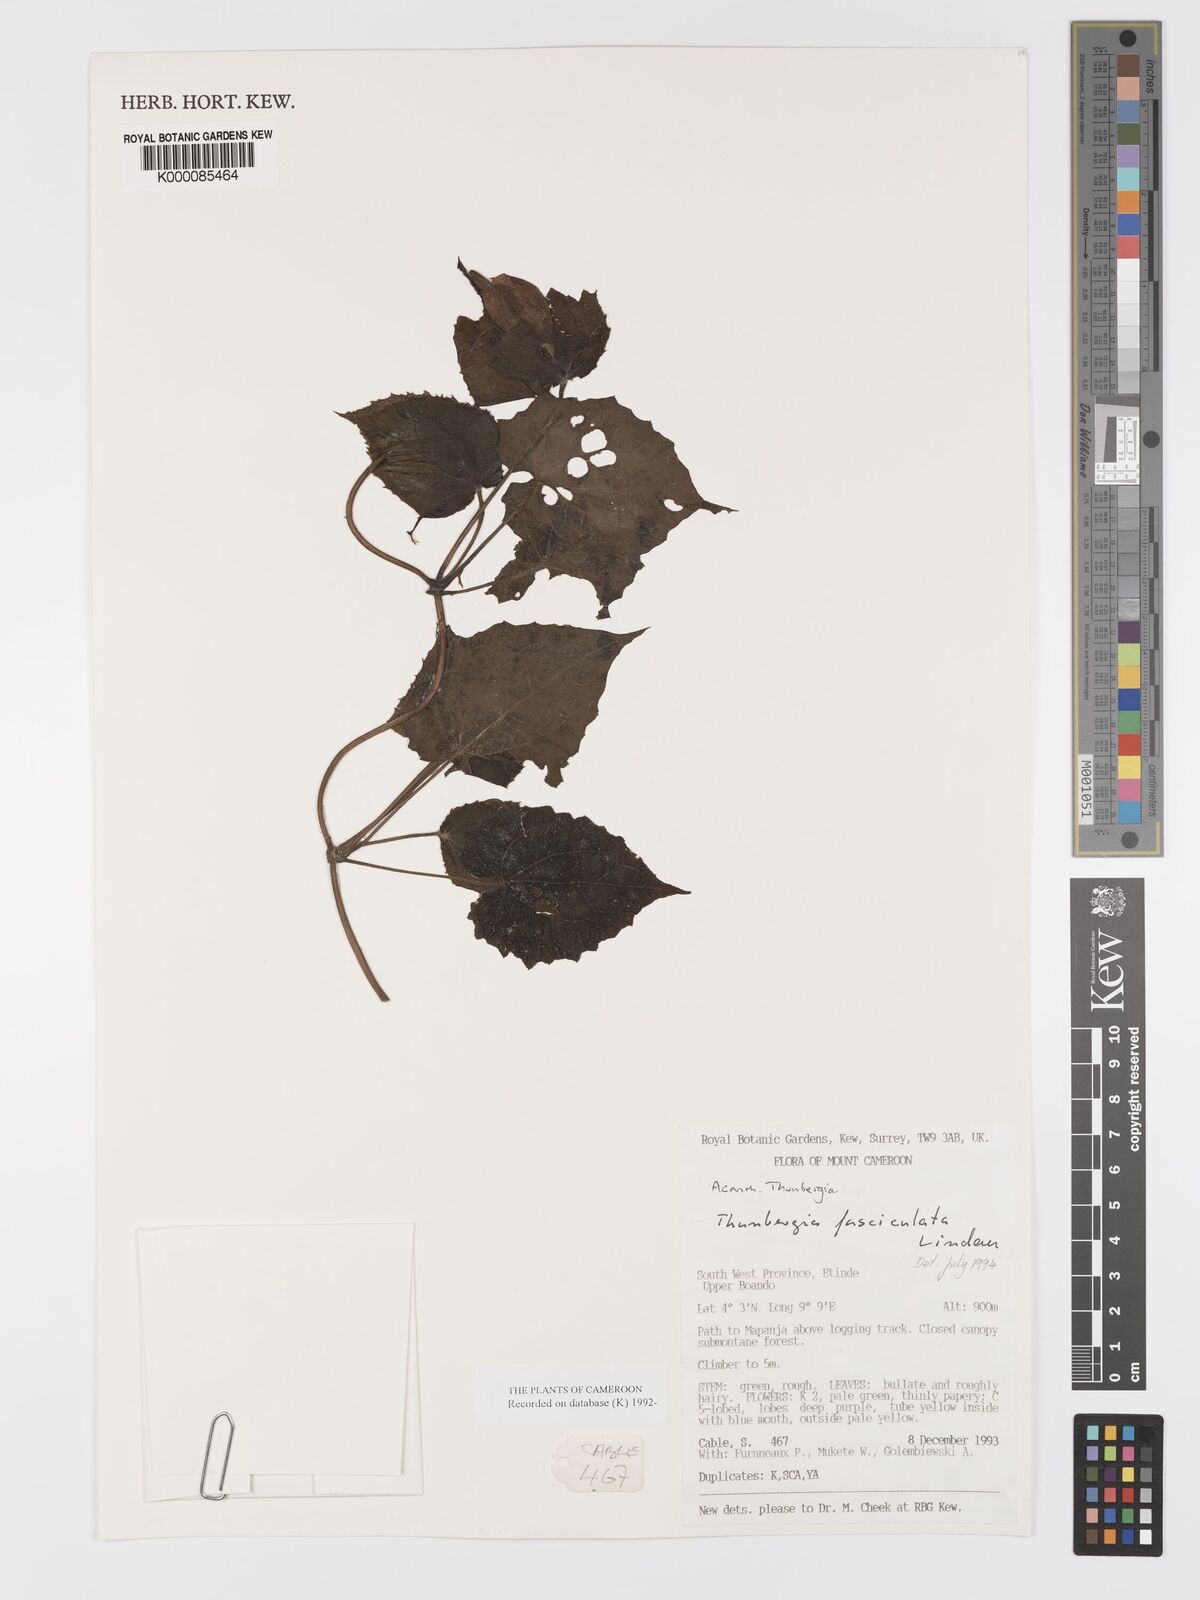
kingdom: Plantae
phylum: Tracheophyta
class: Magnoliopsida
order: Lamiales
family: Acanthaceae
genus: Thunbergia
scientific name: Thunbergia vogeliana
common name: Acanthaceae
